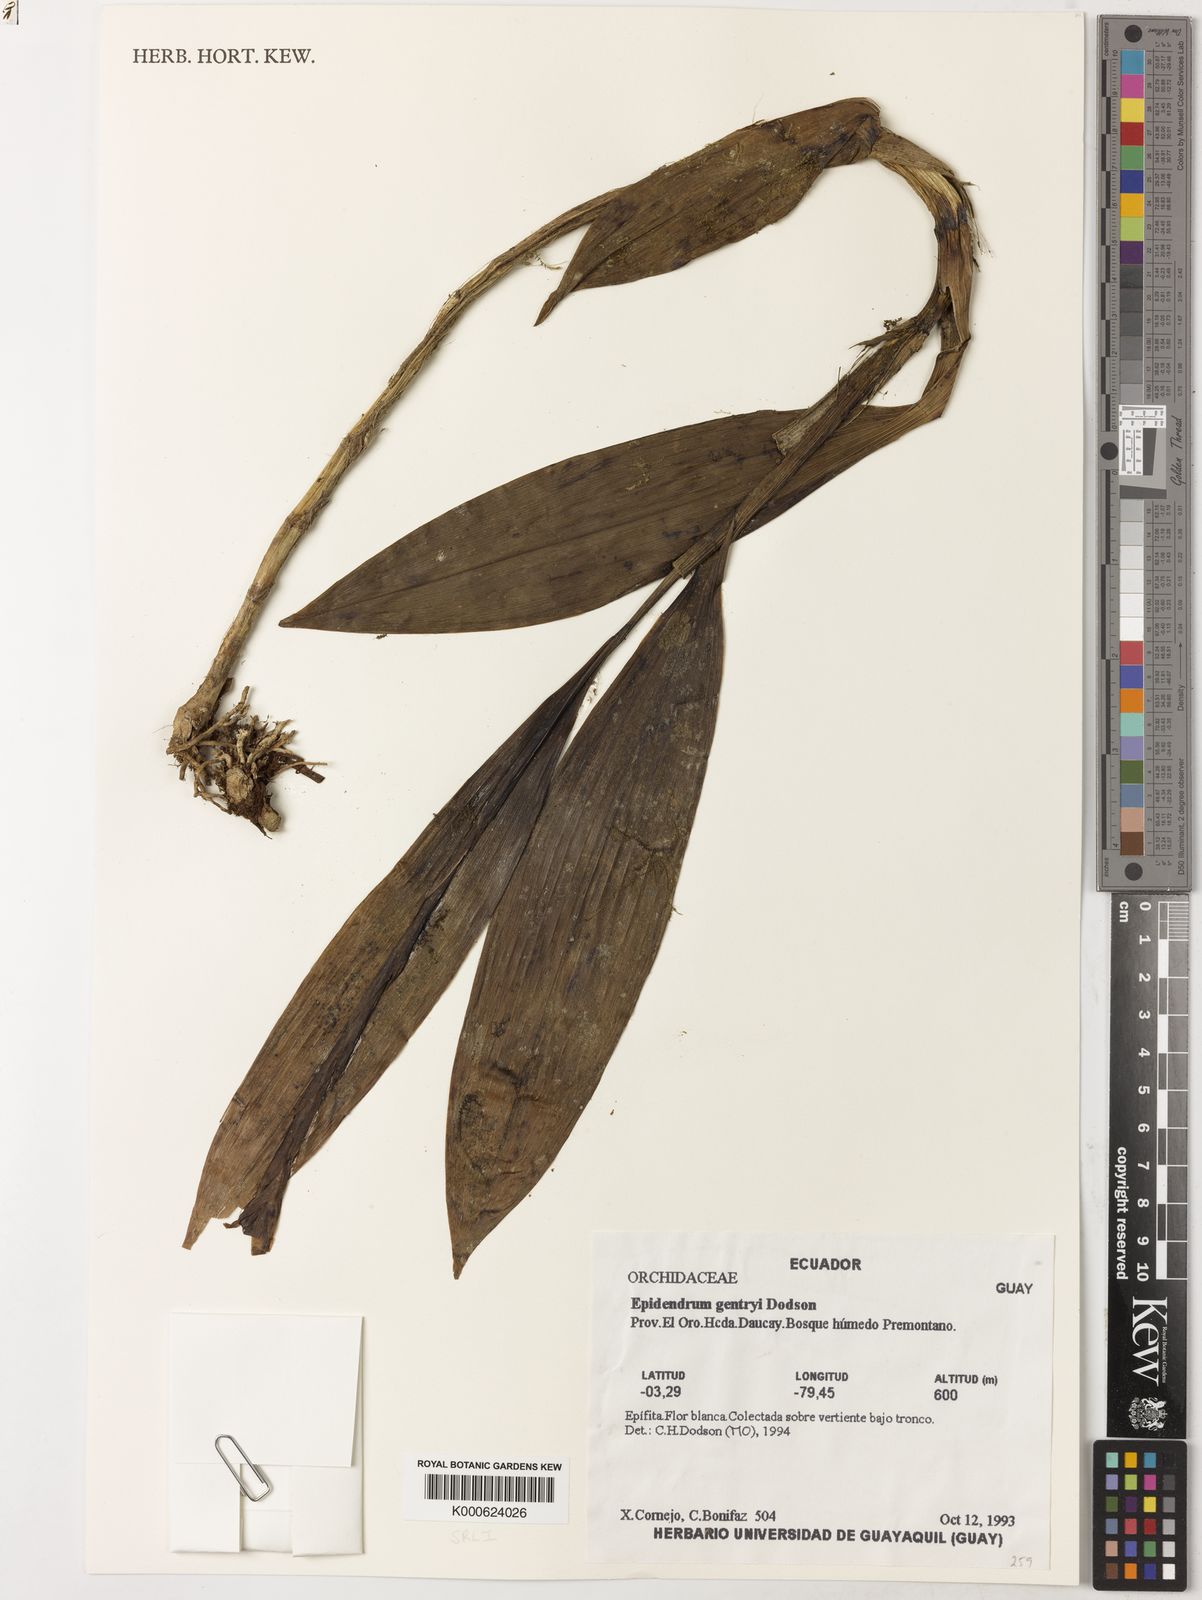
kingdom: Plantae
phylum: Tracheophyta
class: Liliopsida
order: Asparagales
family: Orchidaceae
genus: Epidendrum
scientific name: Epidendrum gentryi
